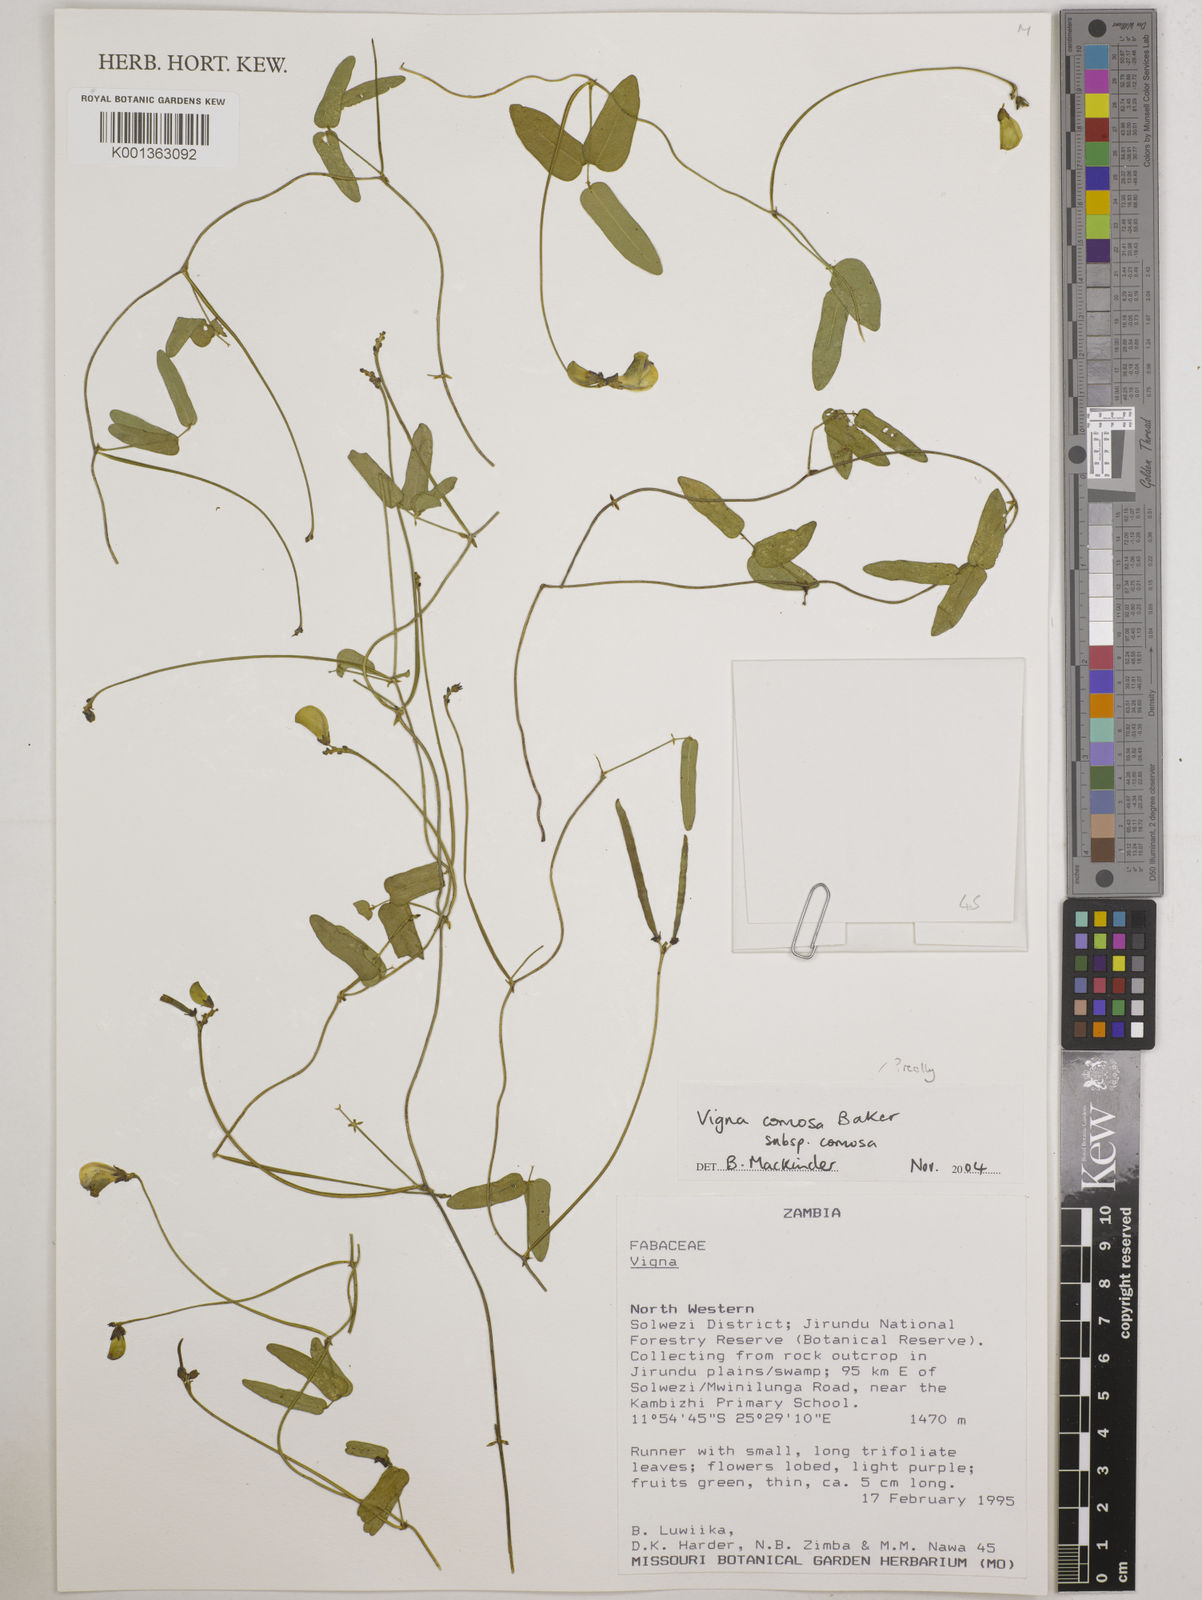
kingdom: Plantae
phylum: Tracheophyta
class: Magnoliopsida
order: Fabales
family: Fabaceae
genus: Vigna
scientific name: Vigna comosa
